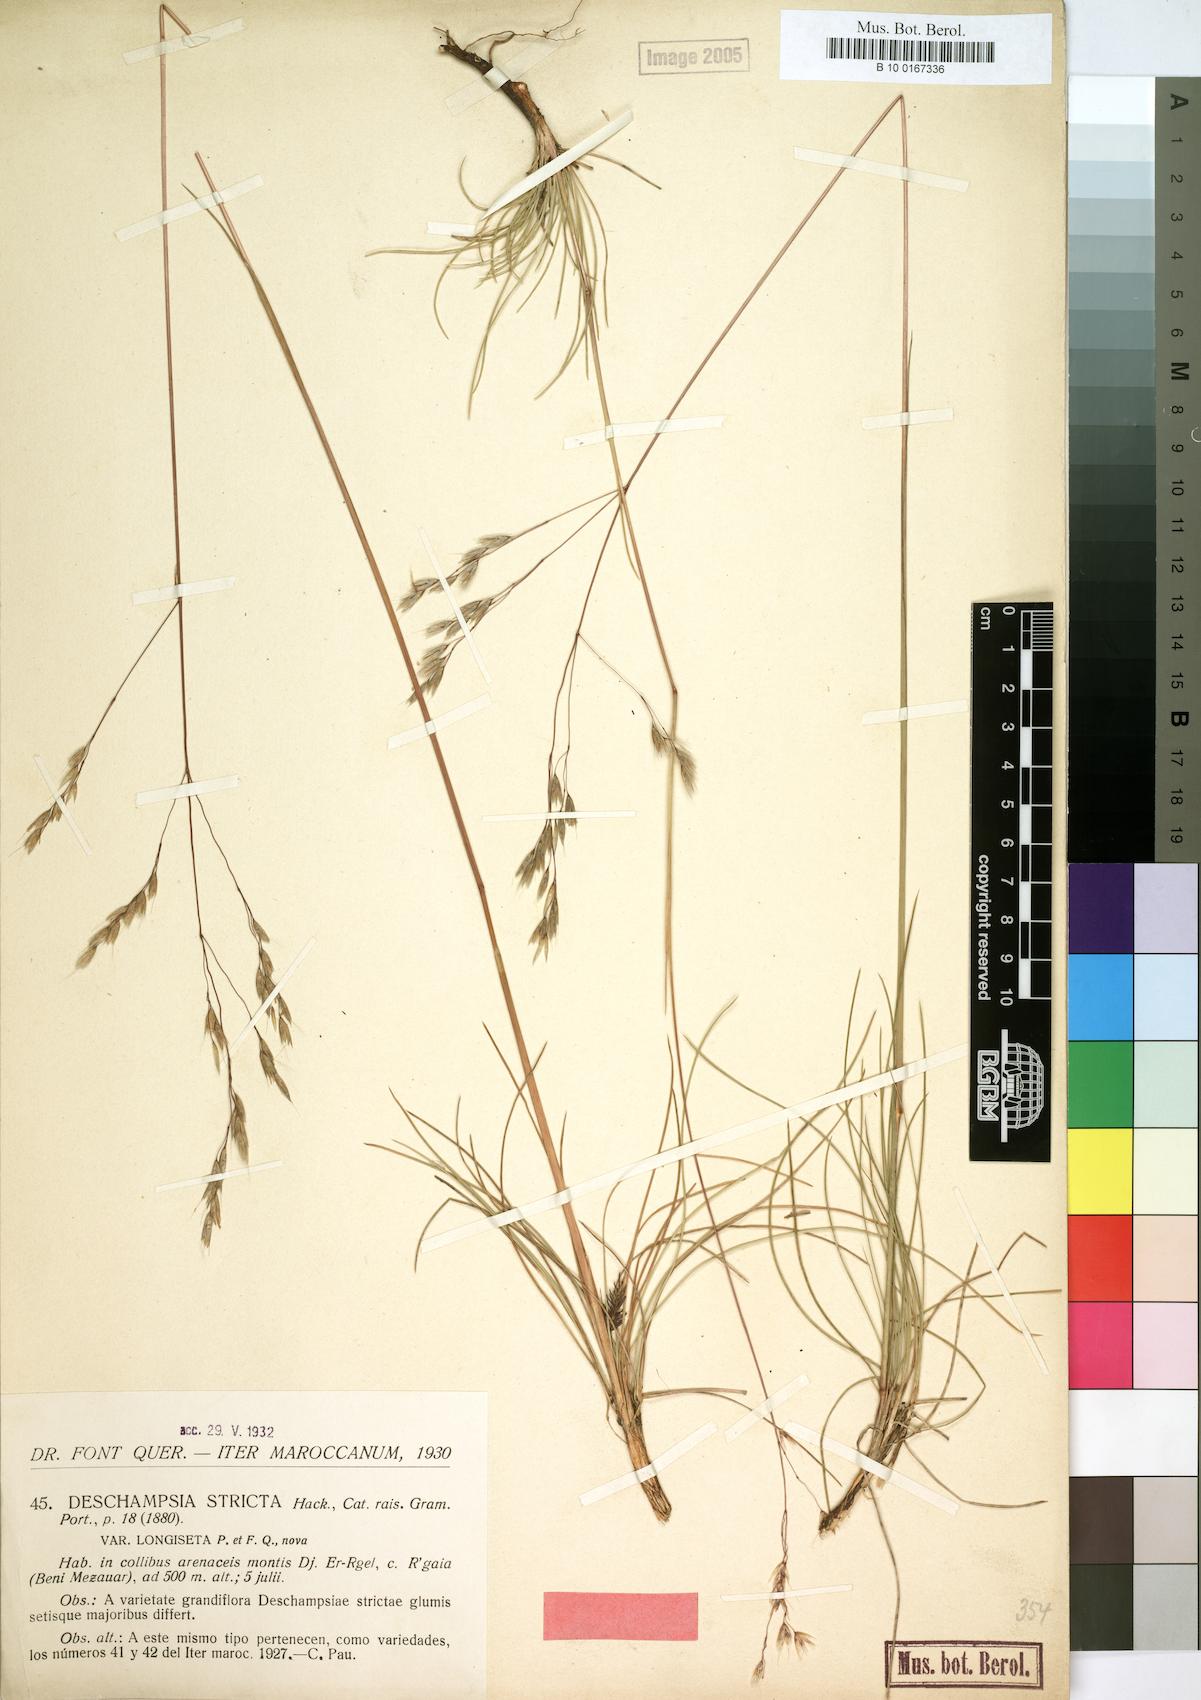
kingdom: Plantae
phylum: Tracheophyta
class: Liliopsida
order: Poales
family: Poaceae
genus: Avenella
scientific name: Avenella flexuosa
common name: Wavy hairgrass
